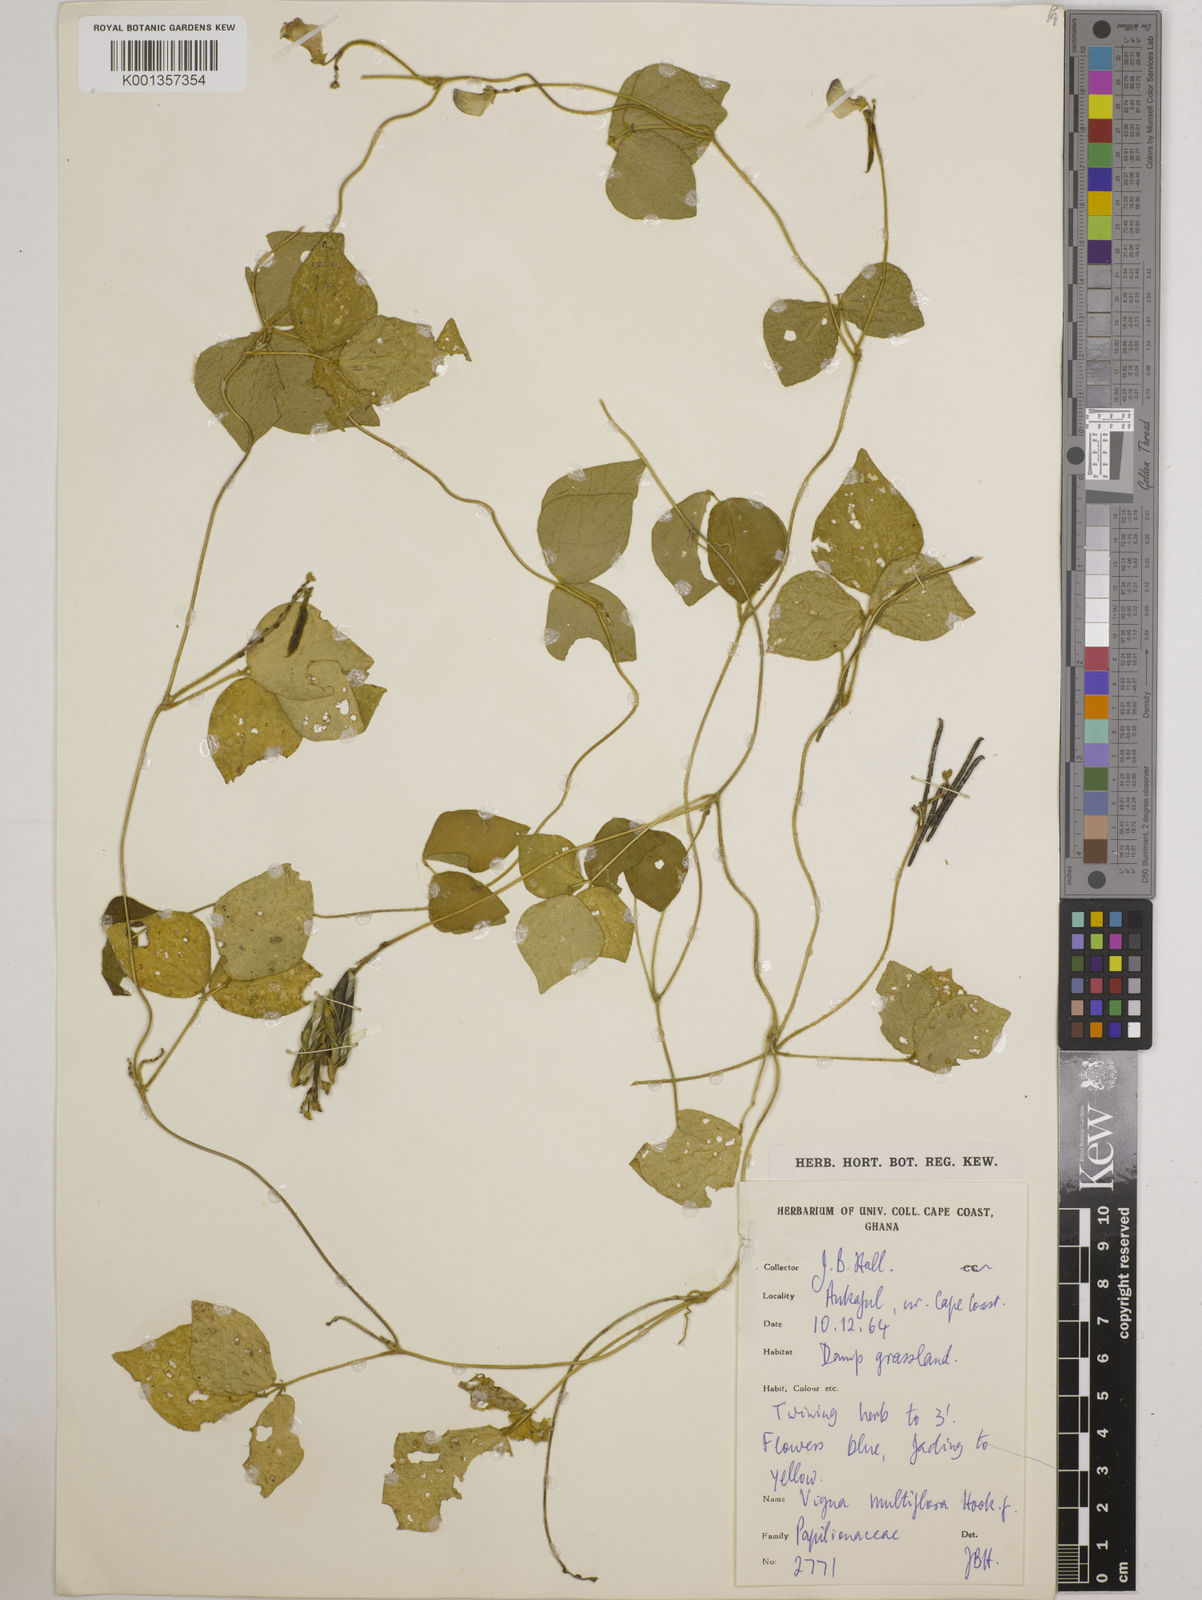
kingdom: Plantae
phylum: Tracheophyta
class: Magnoliopsida
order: Fabales
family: Fabaceae
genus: Vigna
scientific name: Vigna gracilis
